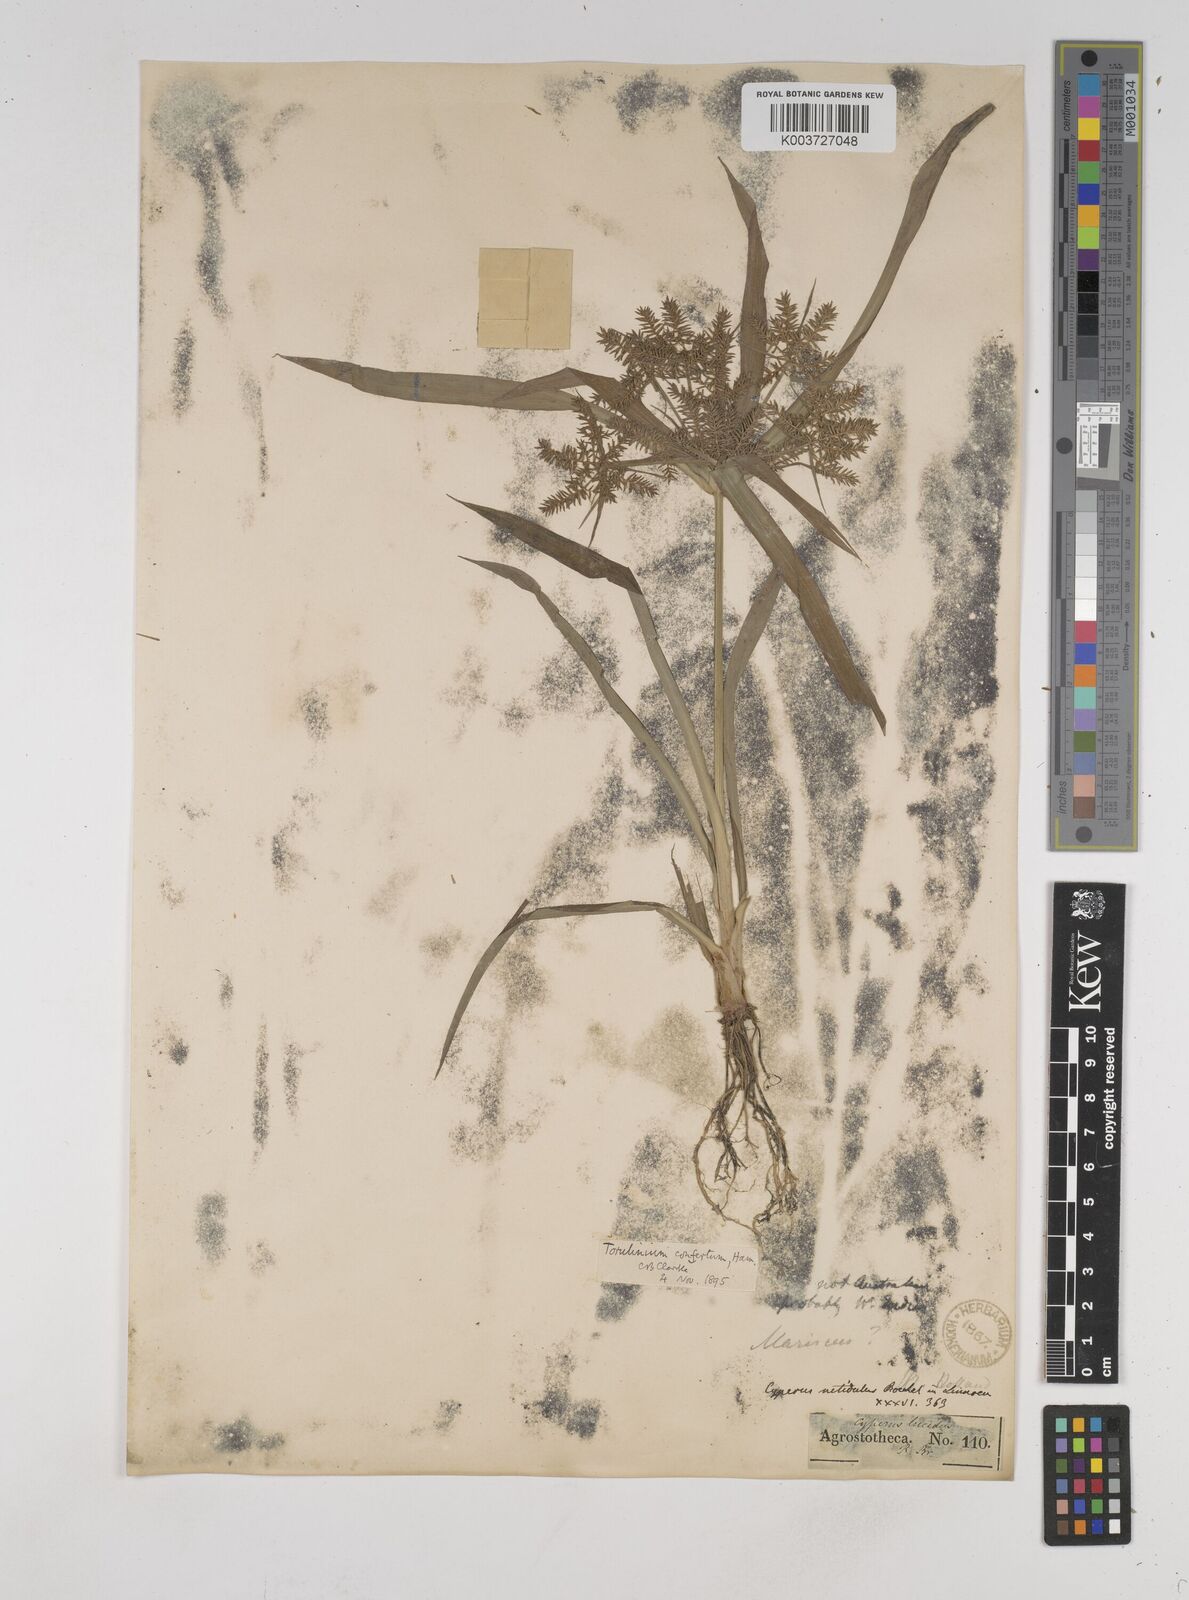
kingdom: Plantae
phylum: Tracheophyta
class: Liliopsida
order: Poales
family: Cyperaceae
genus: Cyperus
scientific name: Cyperus odoratus
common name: Fragrant flatsedge
